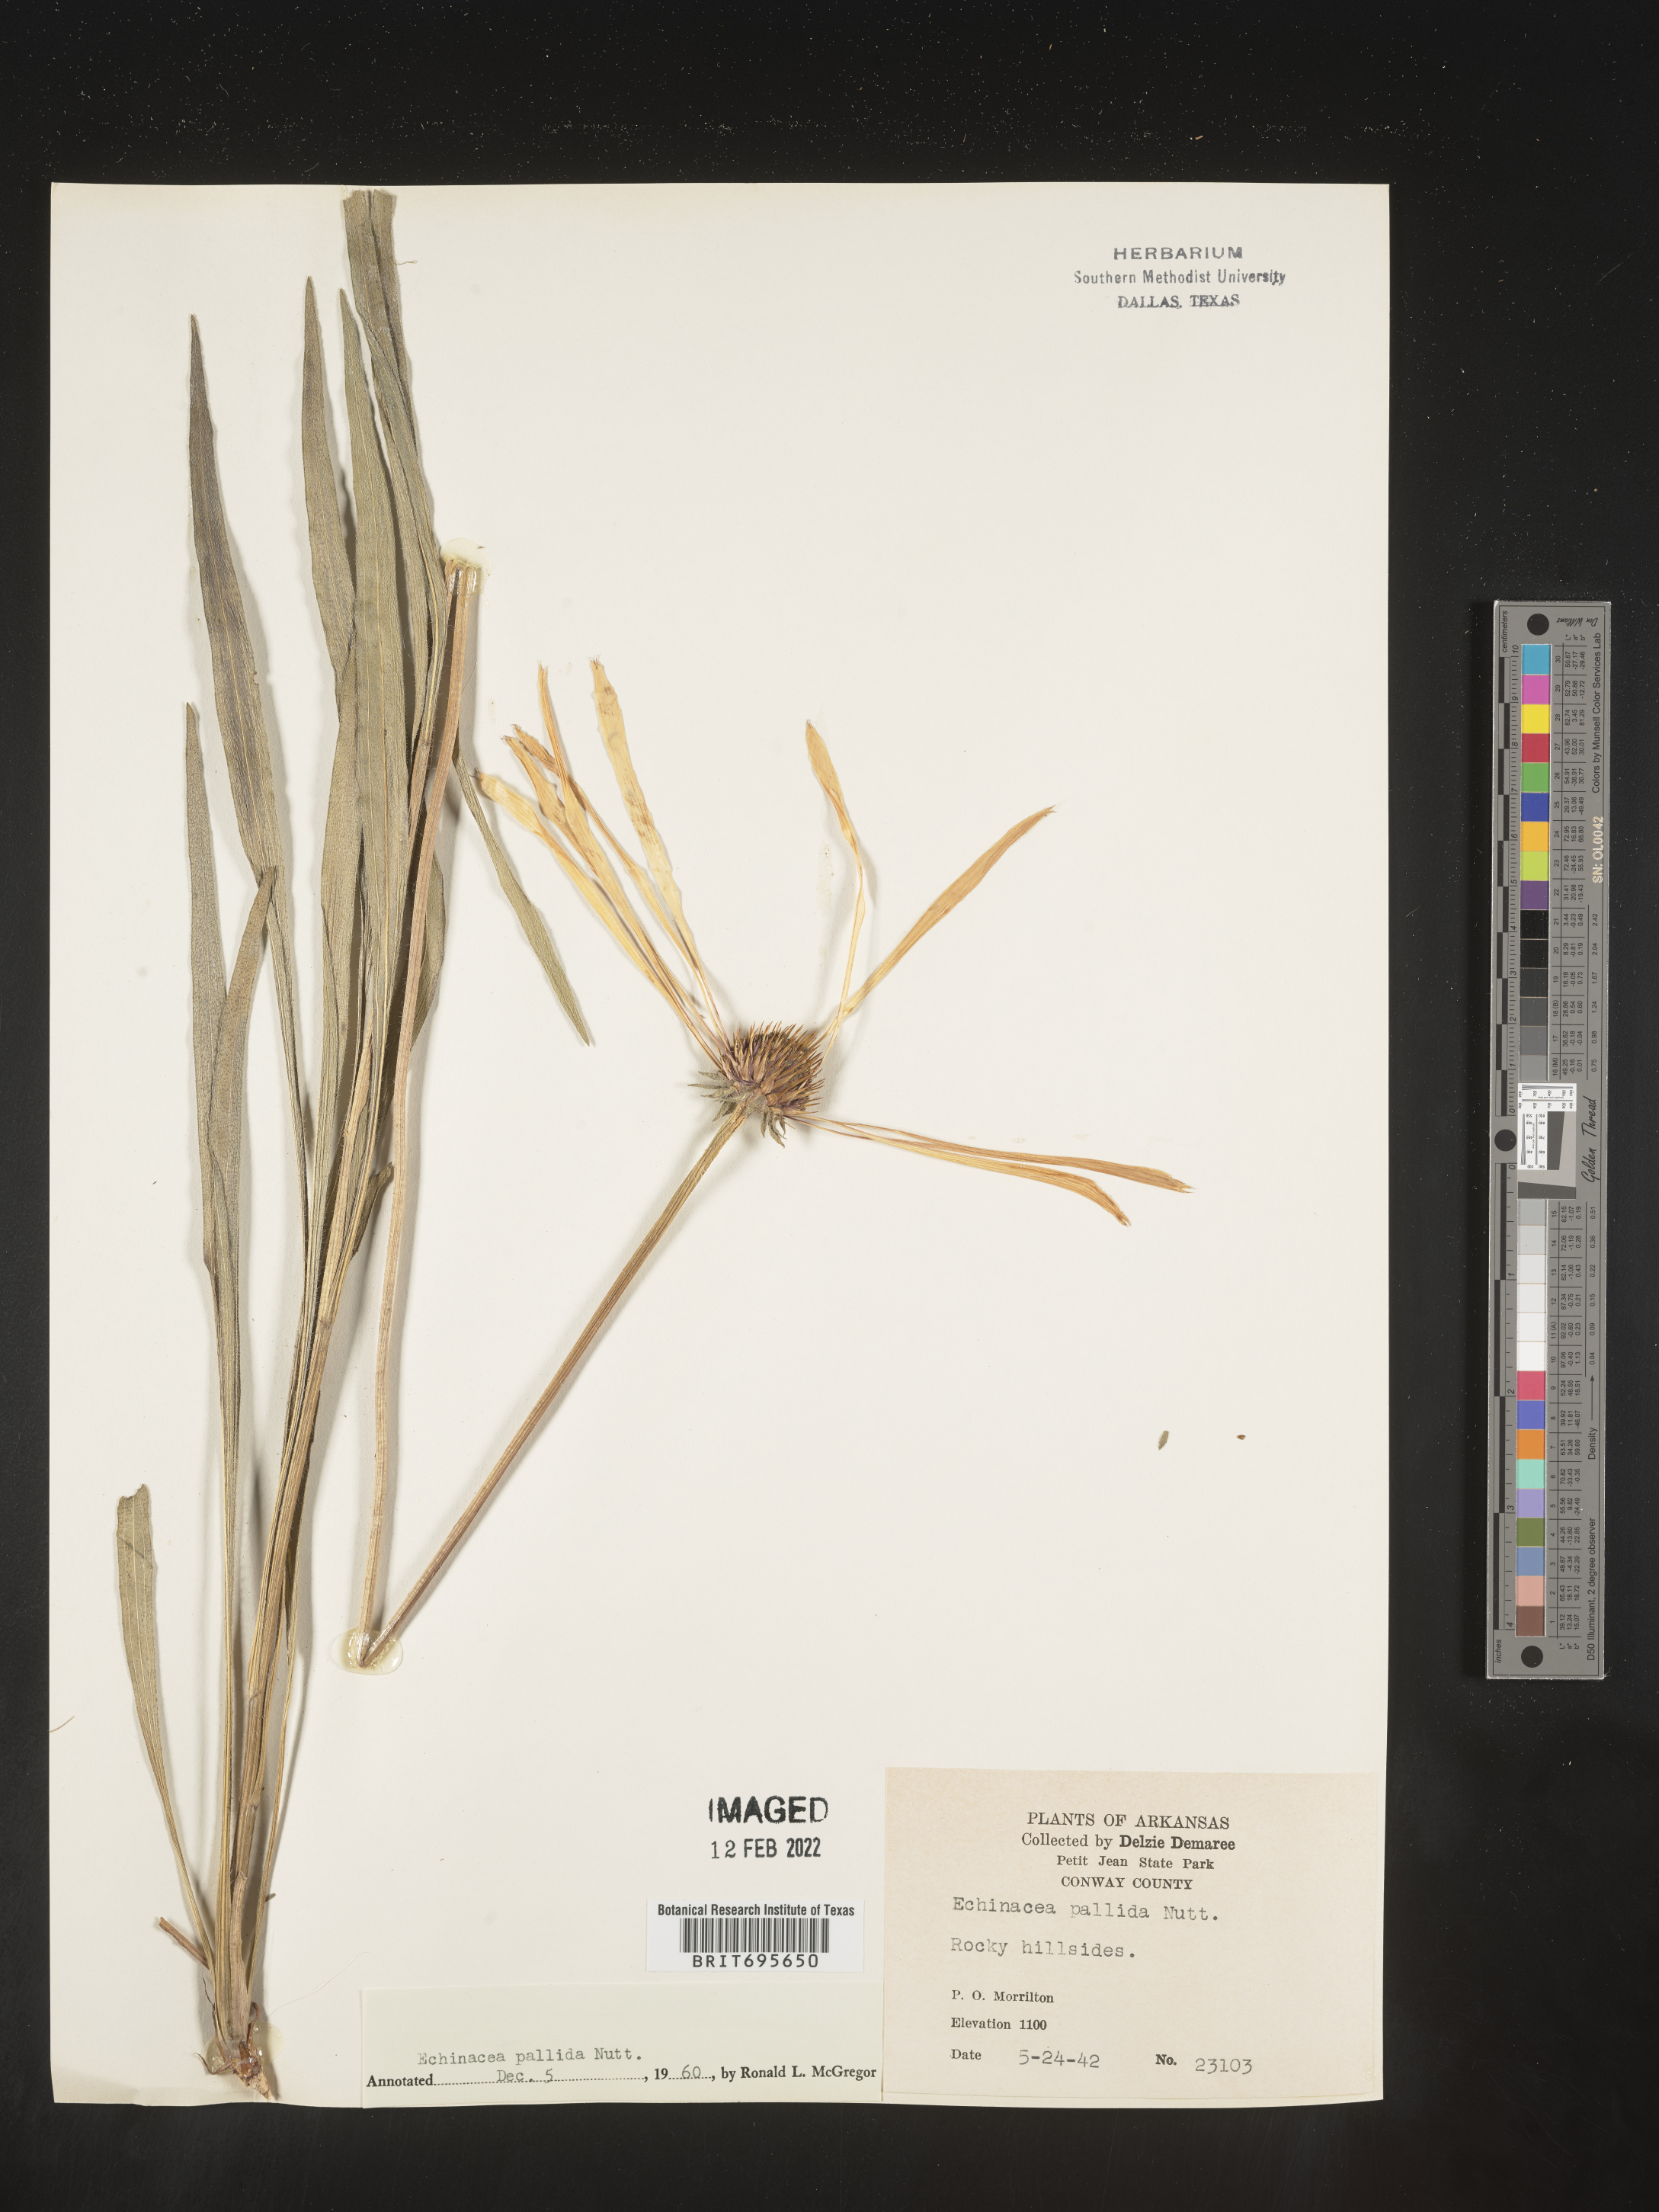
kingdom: Plantae
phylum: Tracheophyta
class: Magnoliopsida
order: Asterales
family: Asteraceae
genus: Echinacea
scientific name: Echinacea pallida
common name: Pale echinacea
